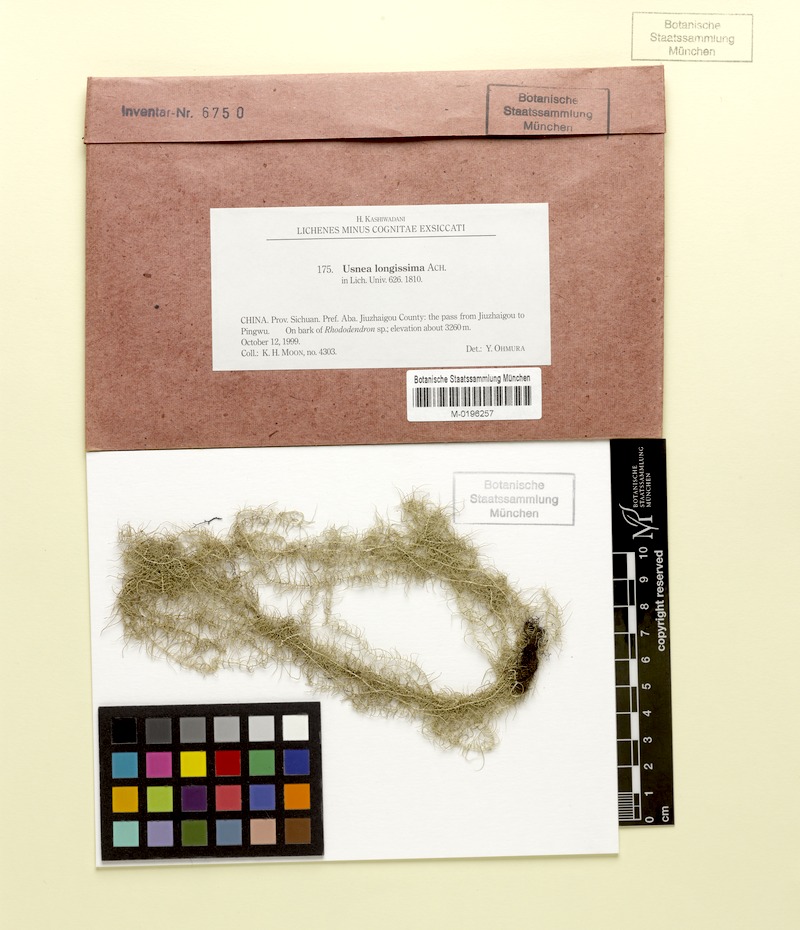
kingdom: Fungi
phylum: Ascomycota
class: Lecanoromycetes
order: Lecanorales
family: Parmeliaceae
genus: Dolichousnea
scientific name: Dolichousnea longissima
